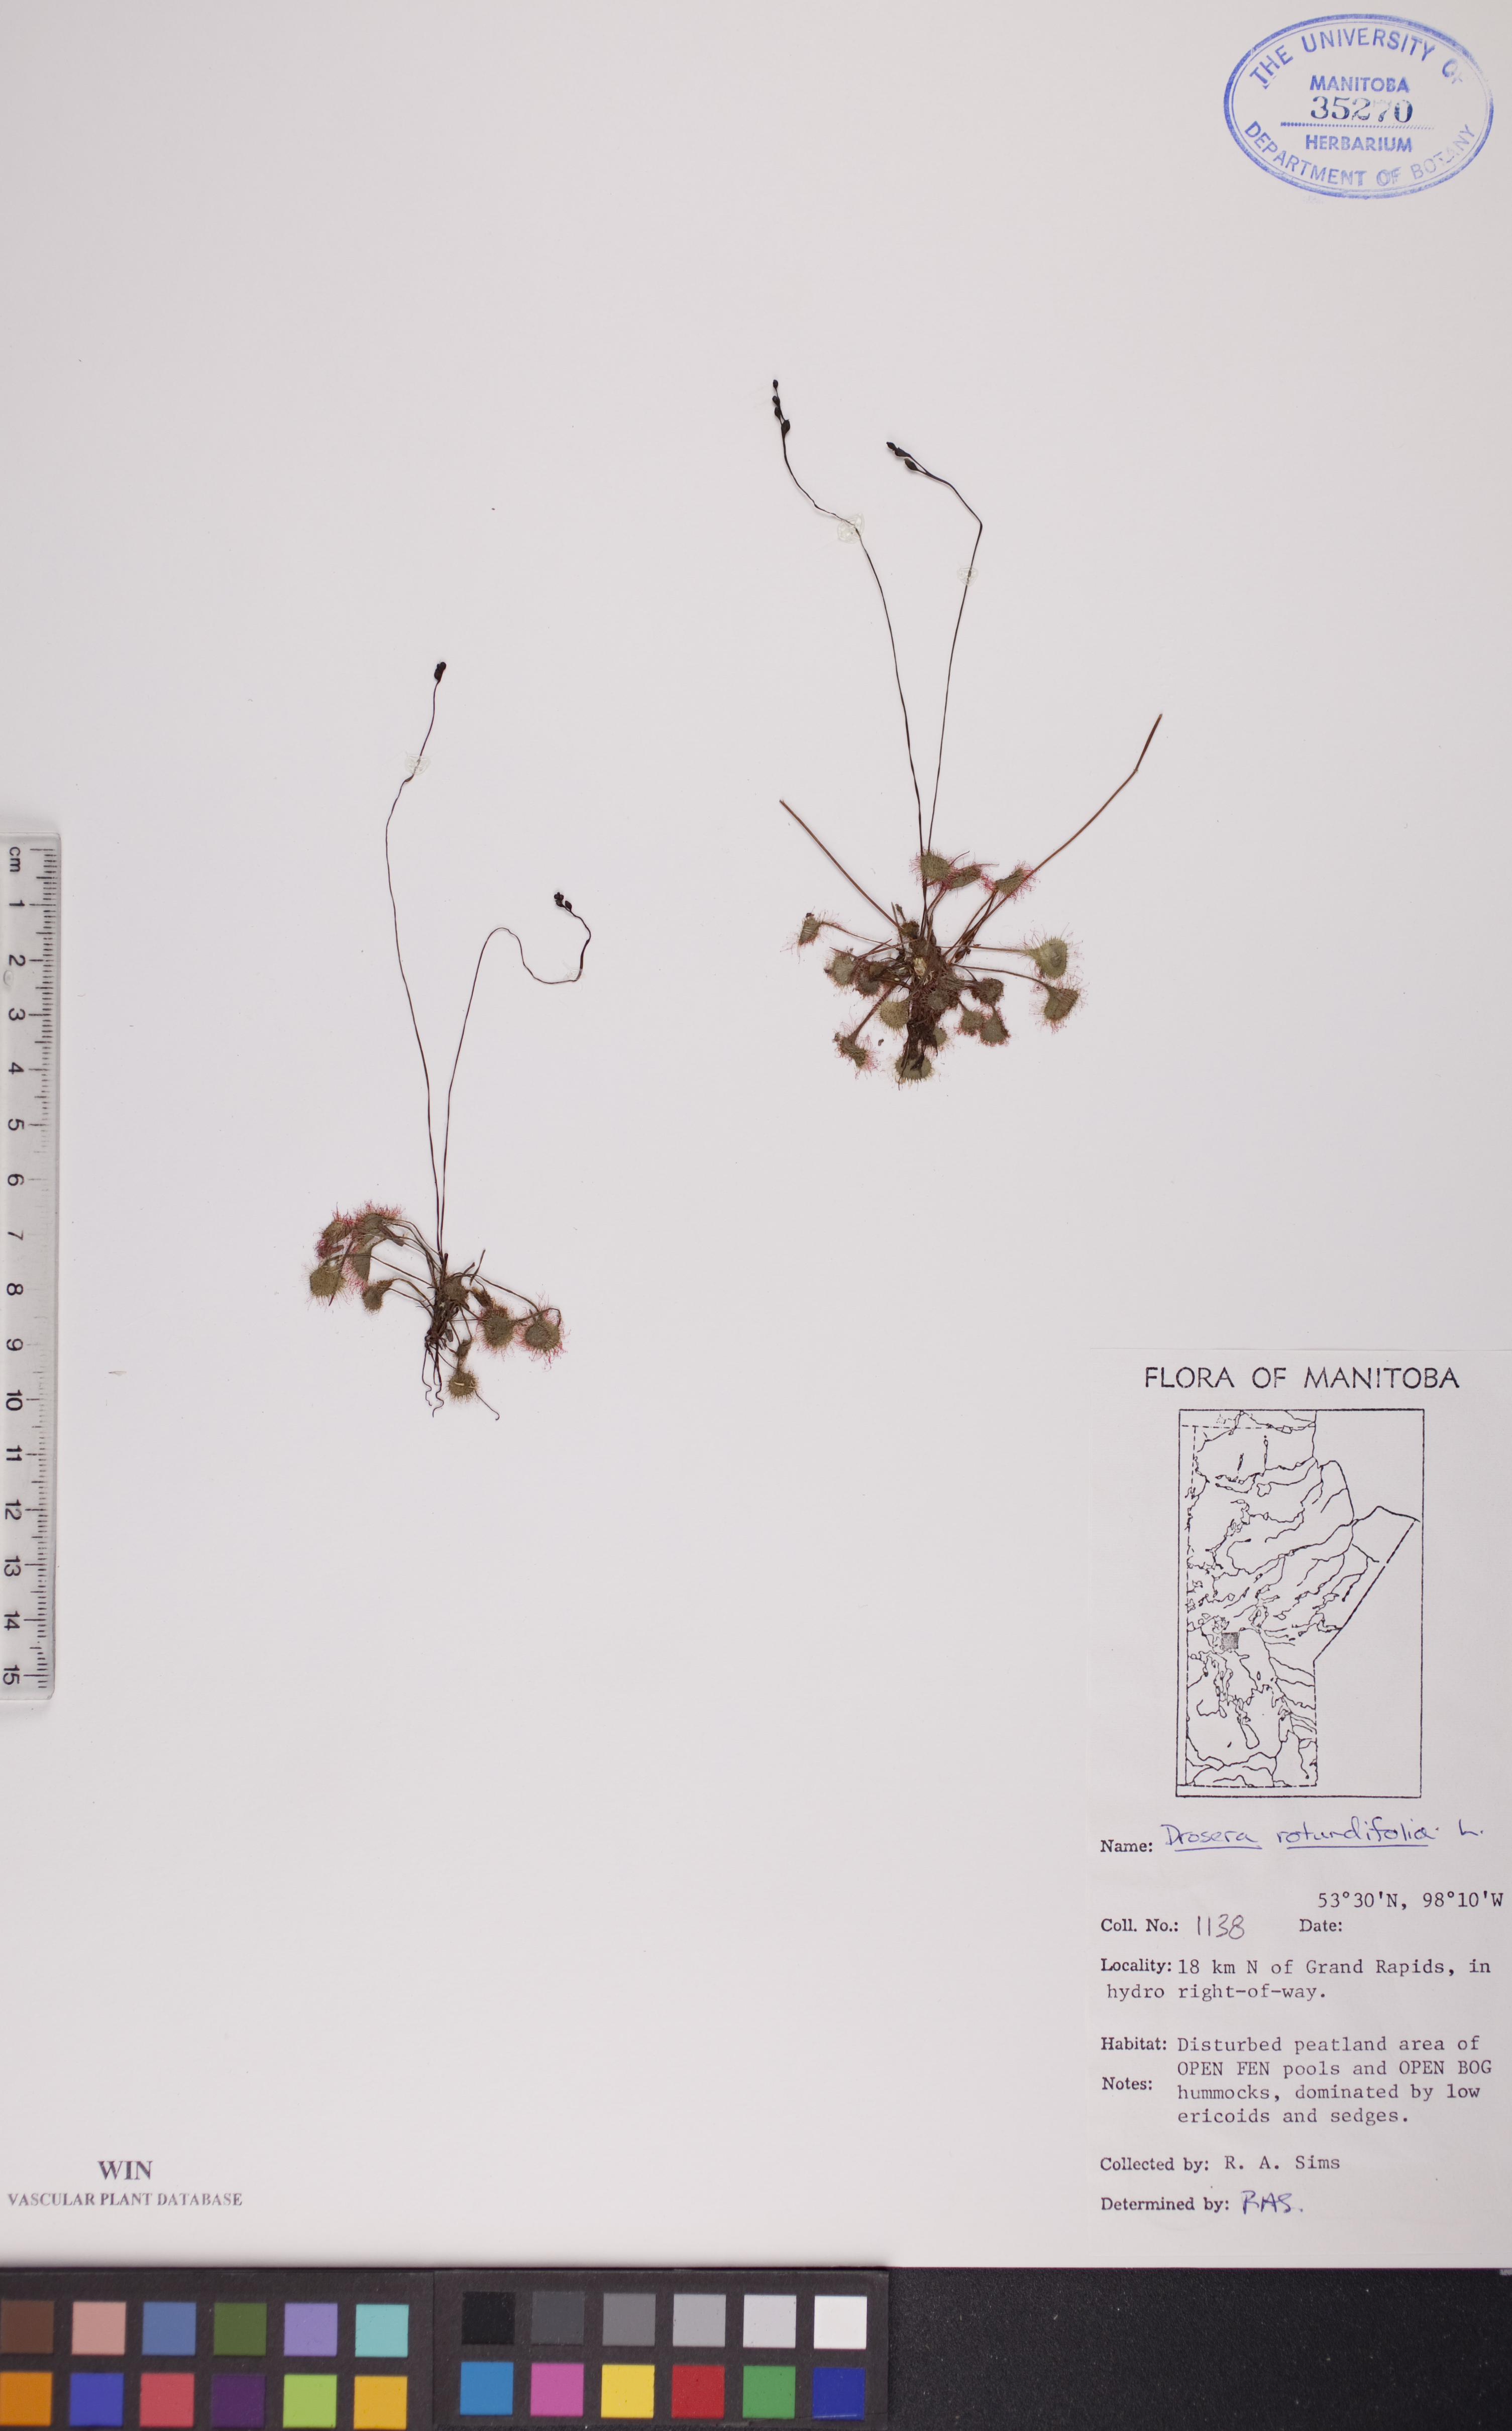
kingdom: Plantae
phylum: Tracheophyta
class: Magnoliopsida
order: Caryophyllales
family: Droseraceae
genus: Drosera
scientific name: Drosera rotundifolia
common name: Round-leaved sundew
